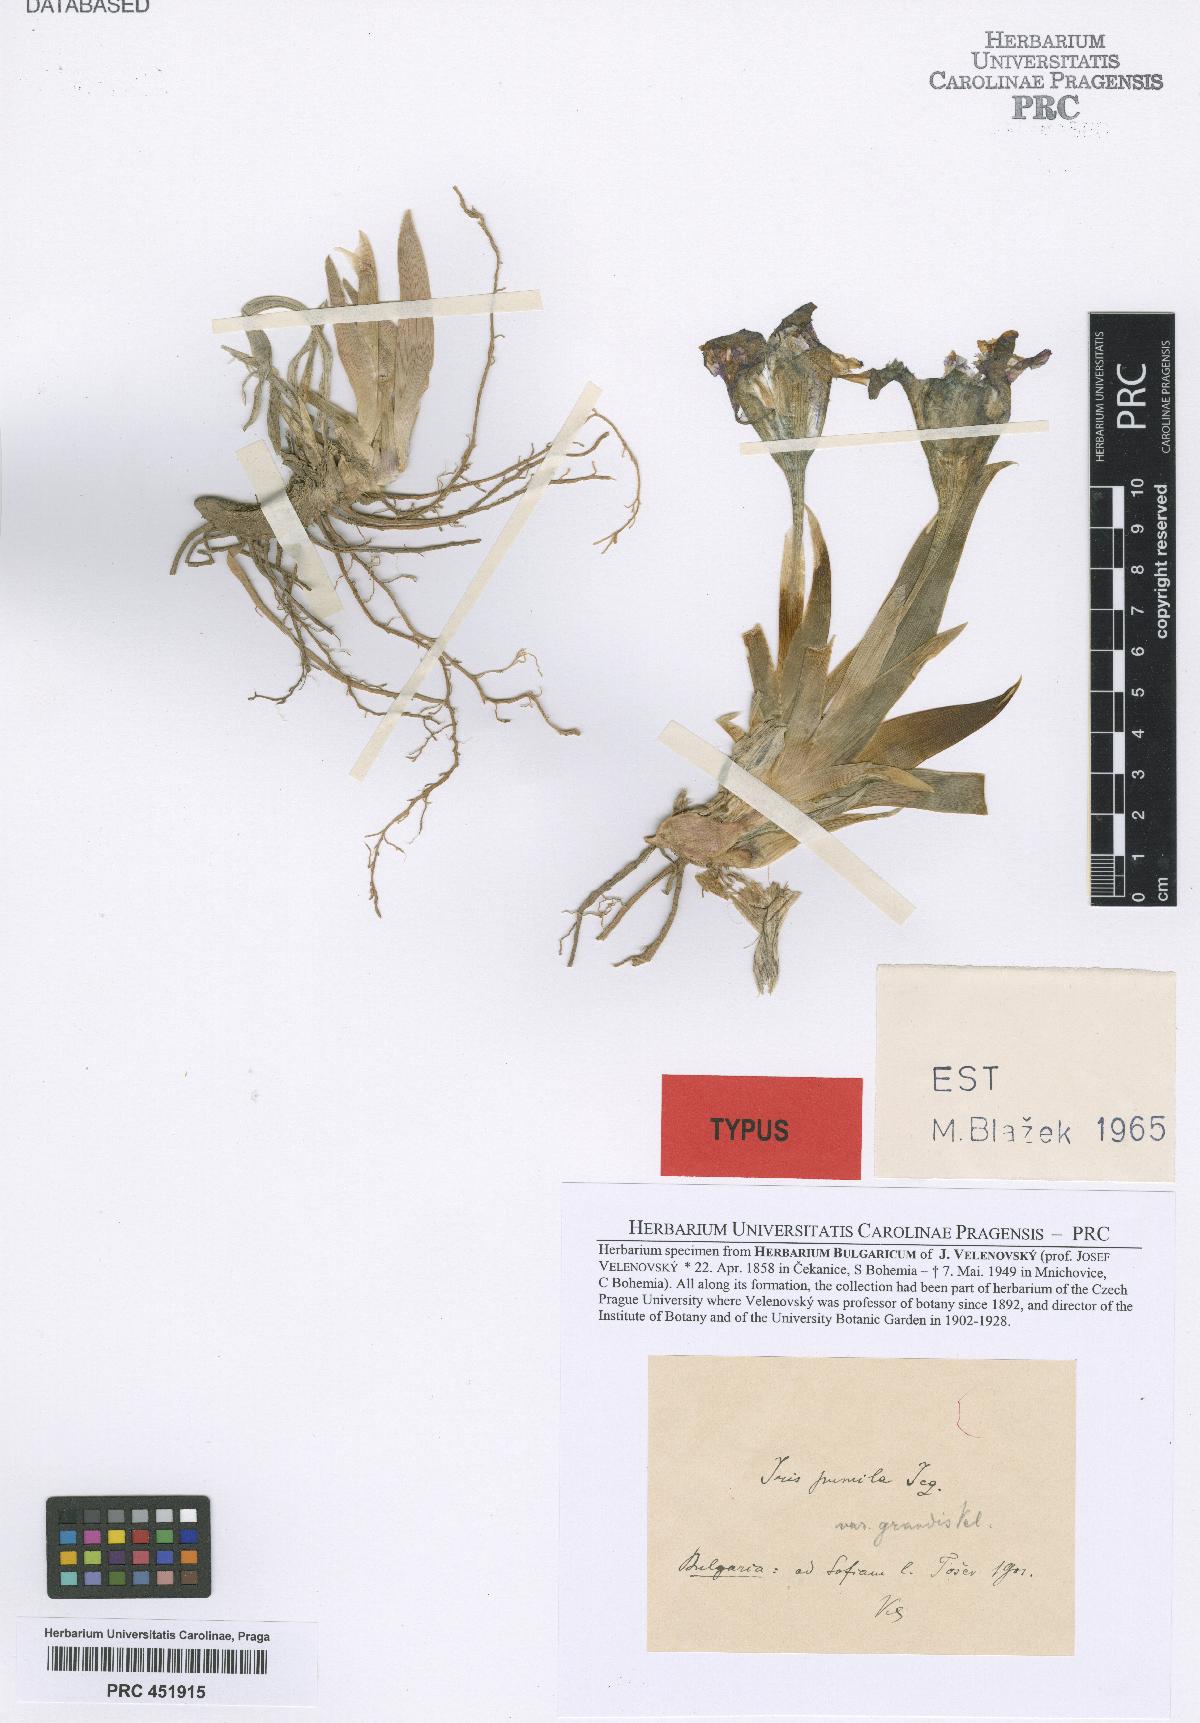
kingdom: Plantae
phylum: Tracheophyta
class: Liliopsida
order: Asparagales
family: Iridaceae
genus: Iris
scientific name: Iris pumila
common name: Dwarf iris
